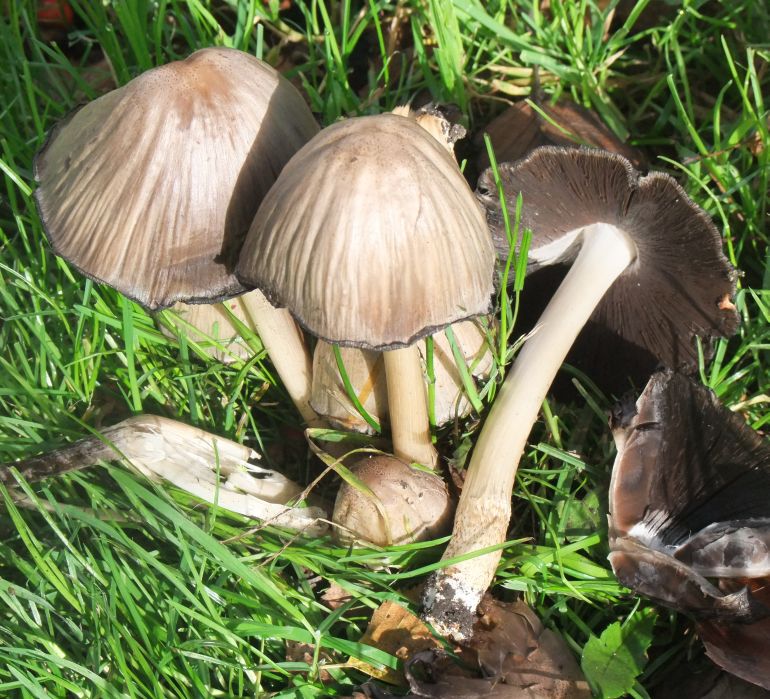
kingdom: Fungi
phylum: Basidiomycota
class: Agaricomycetes
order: Agaricales
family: Psathyrellaceae
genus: Coprinopsis
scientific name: Coprinopsis atramentaria
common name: almindelig blækhat
